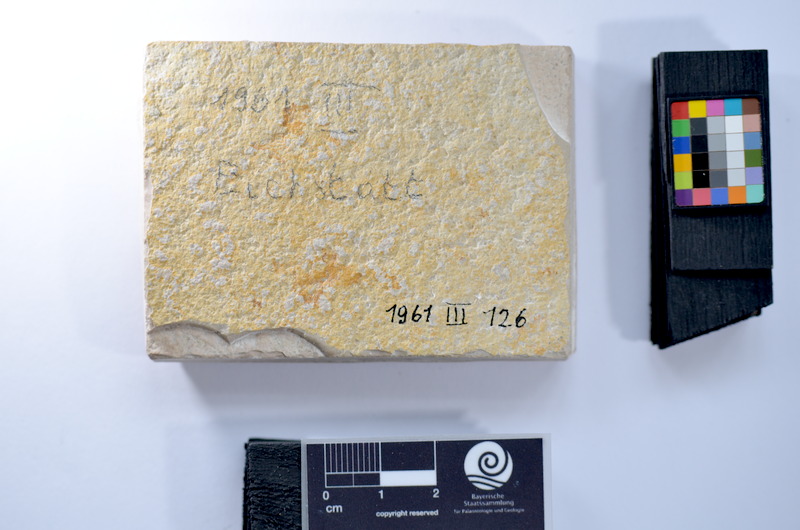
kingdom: Animalia
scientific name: Animalia
